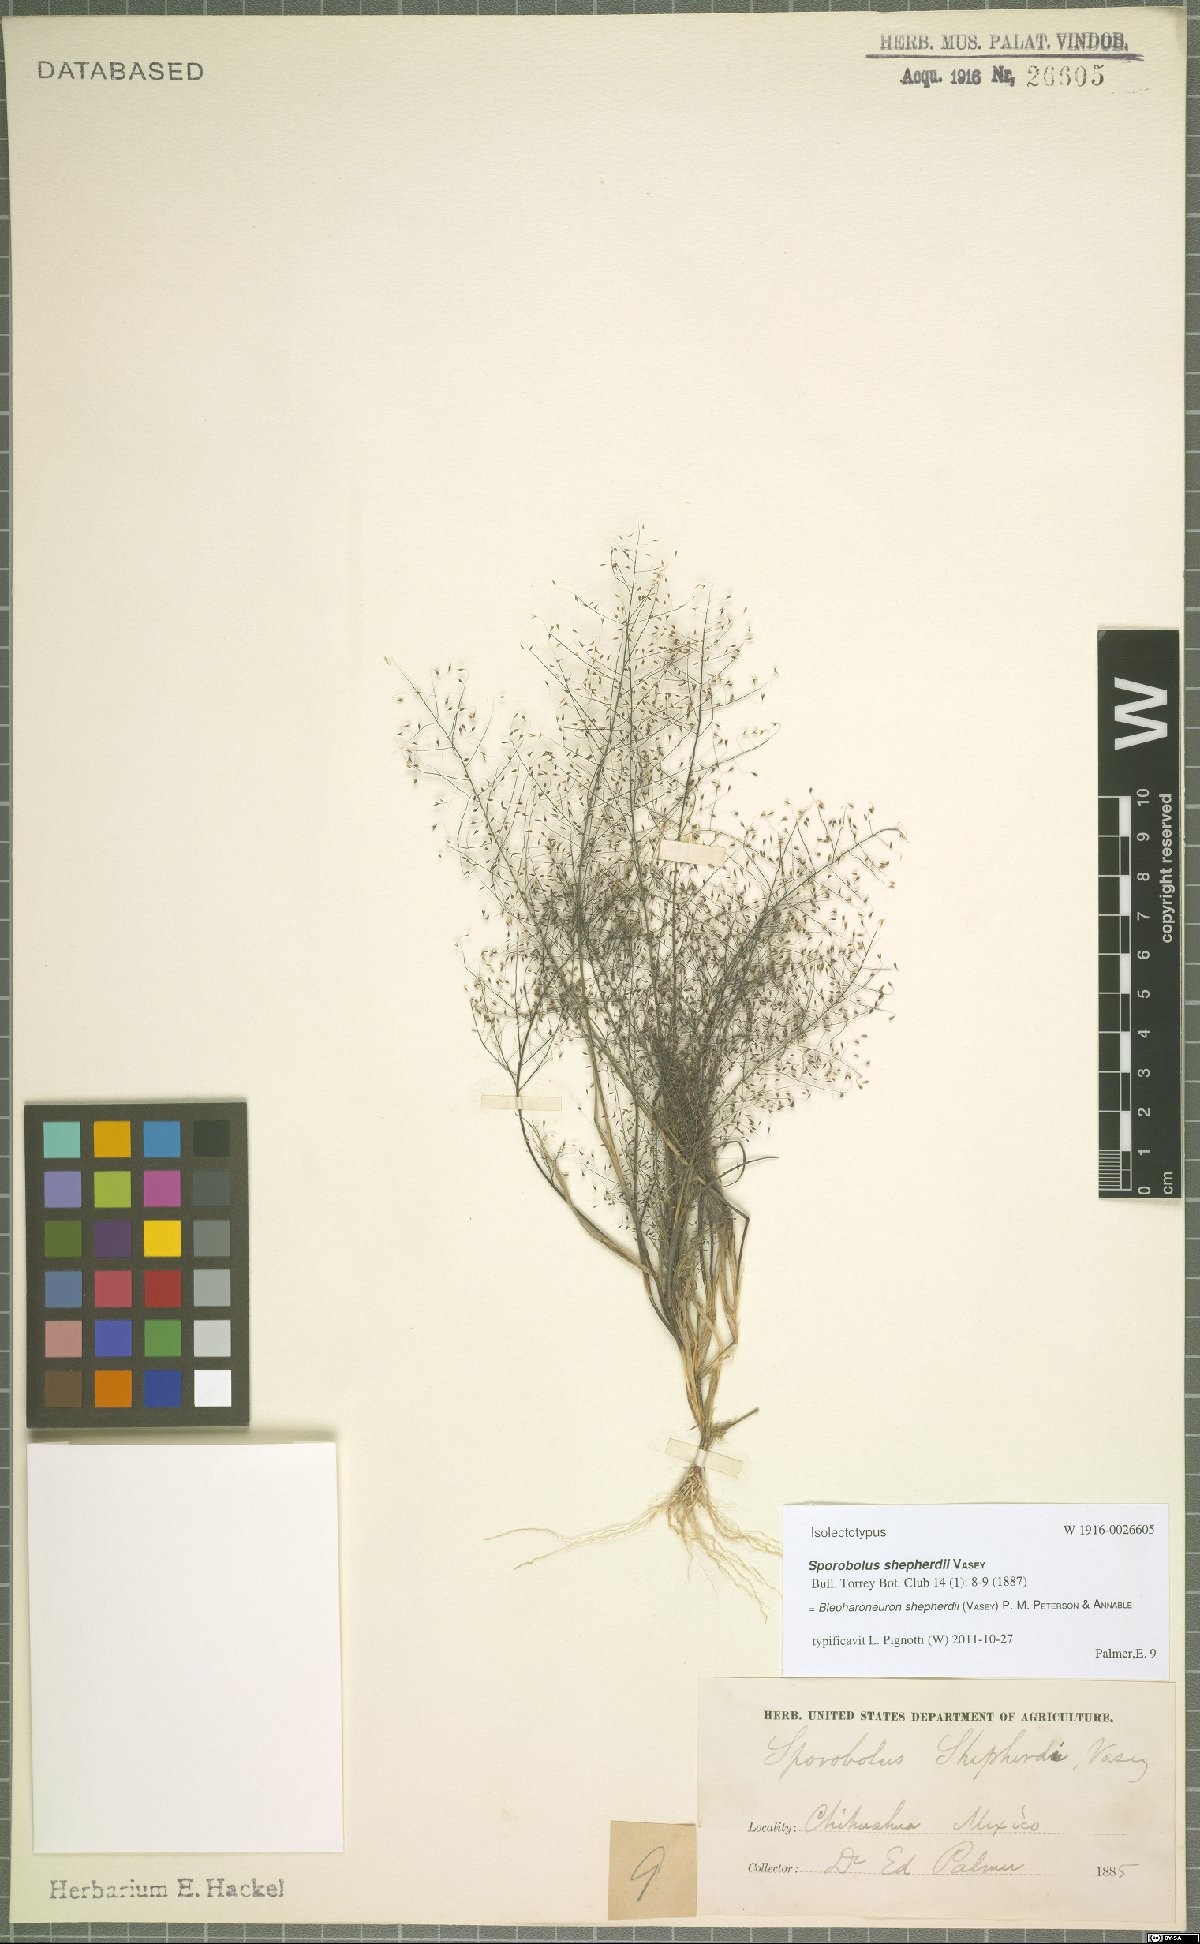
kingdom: Plantae
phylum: Tracheophyta
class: Liliopsida
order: Poales
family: Poaceae
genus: Muhlenbergia
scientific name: Muhlenbergia shepherdii
